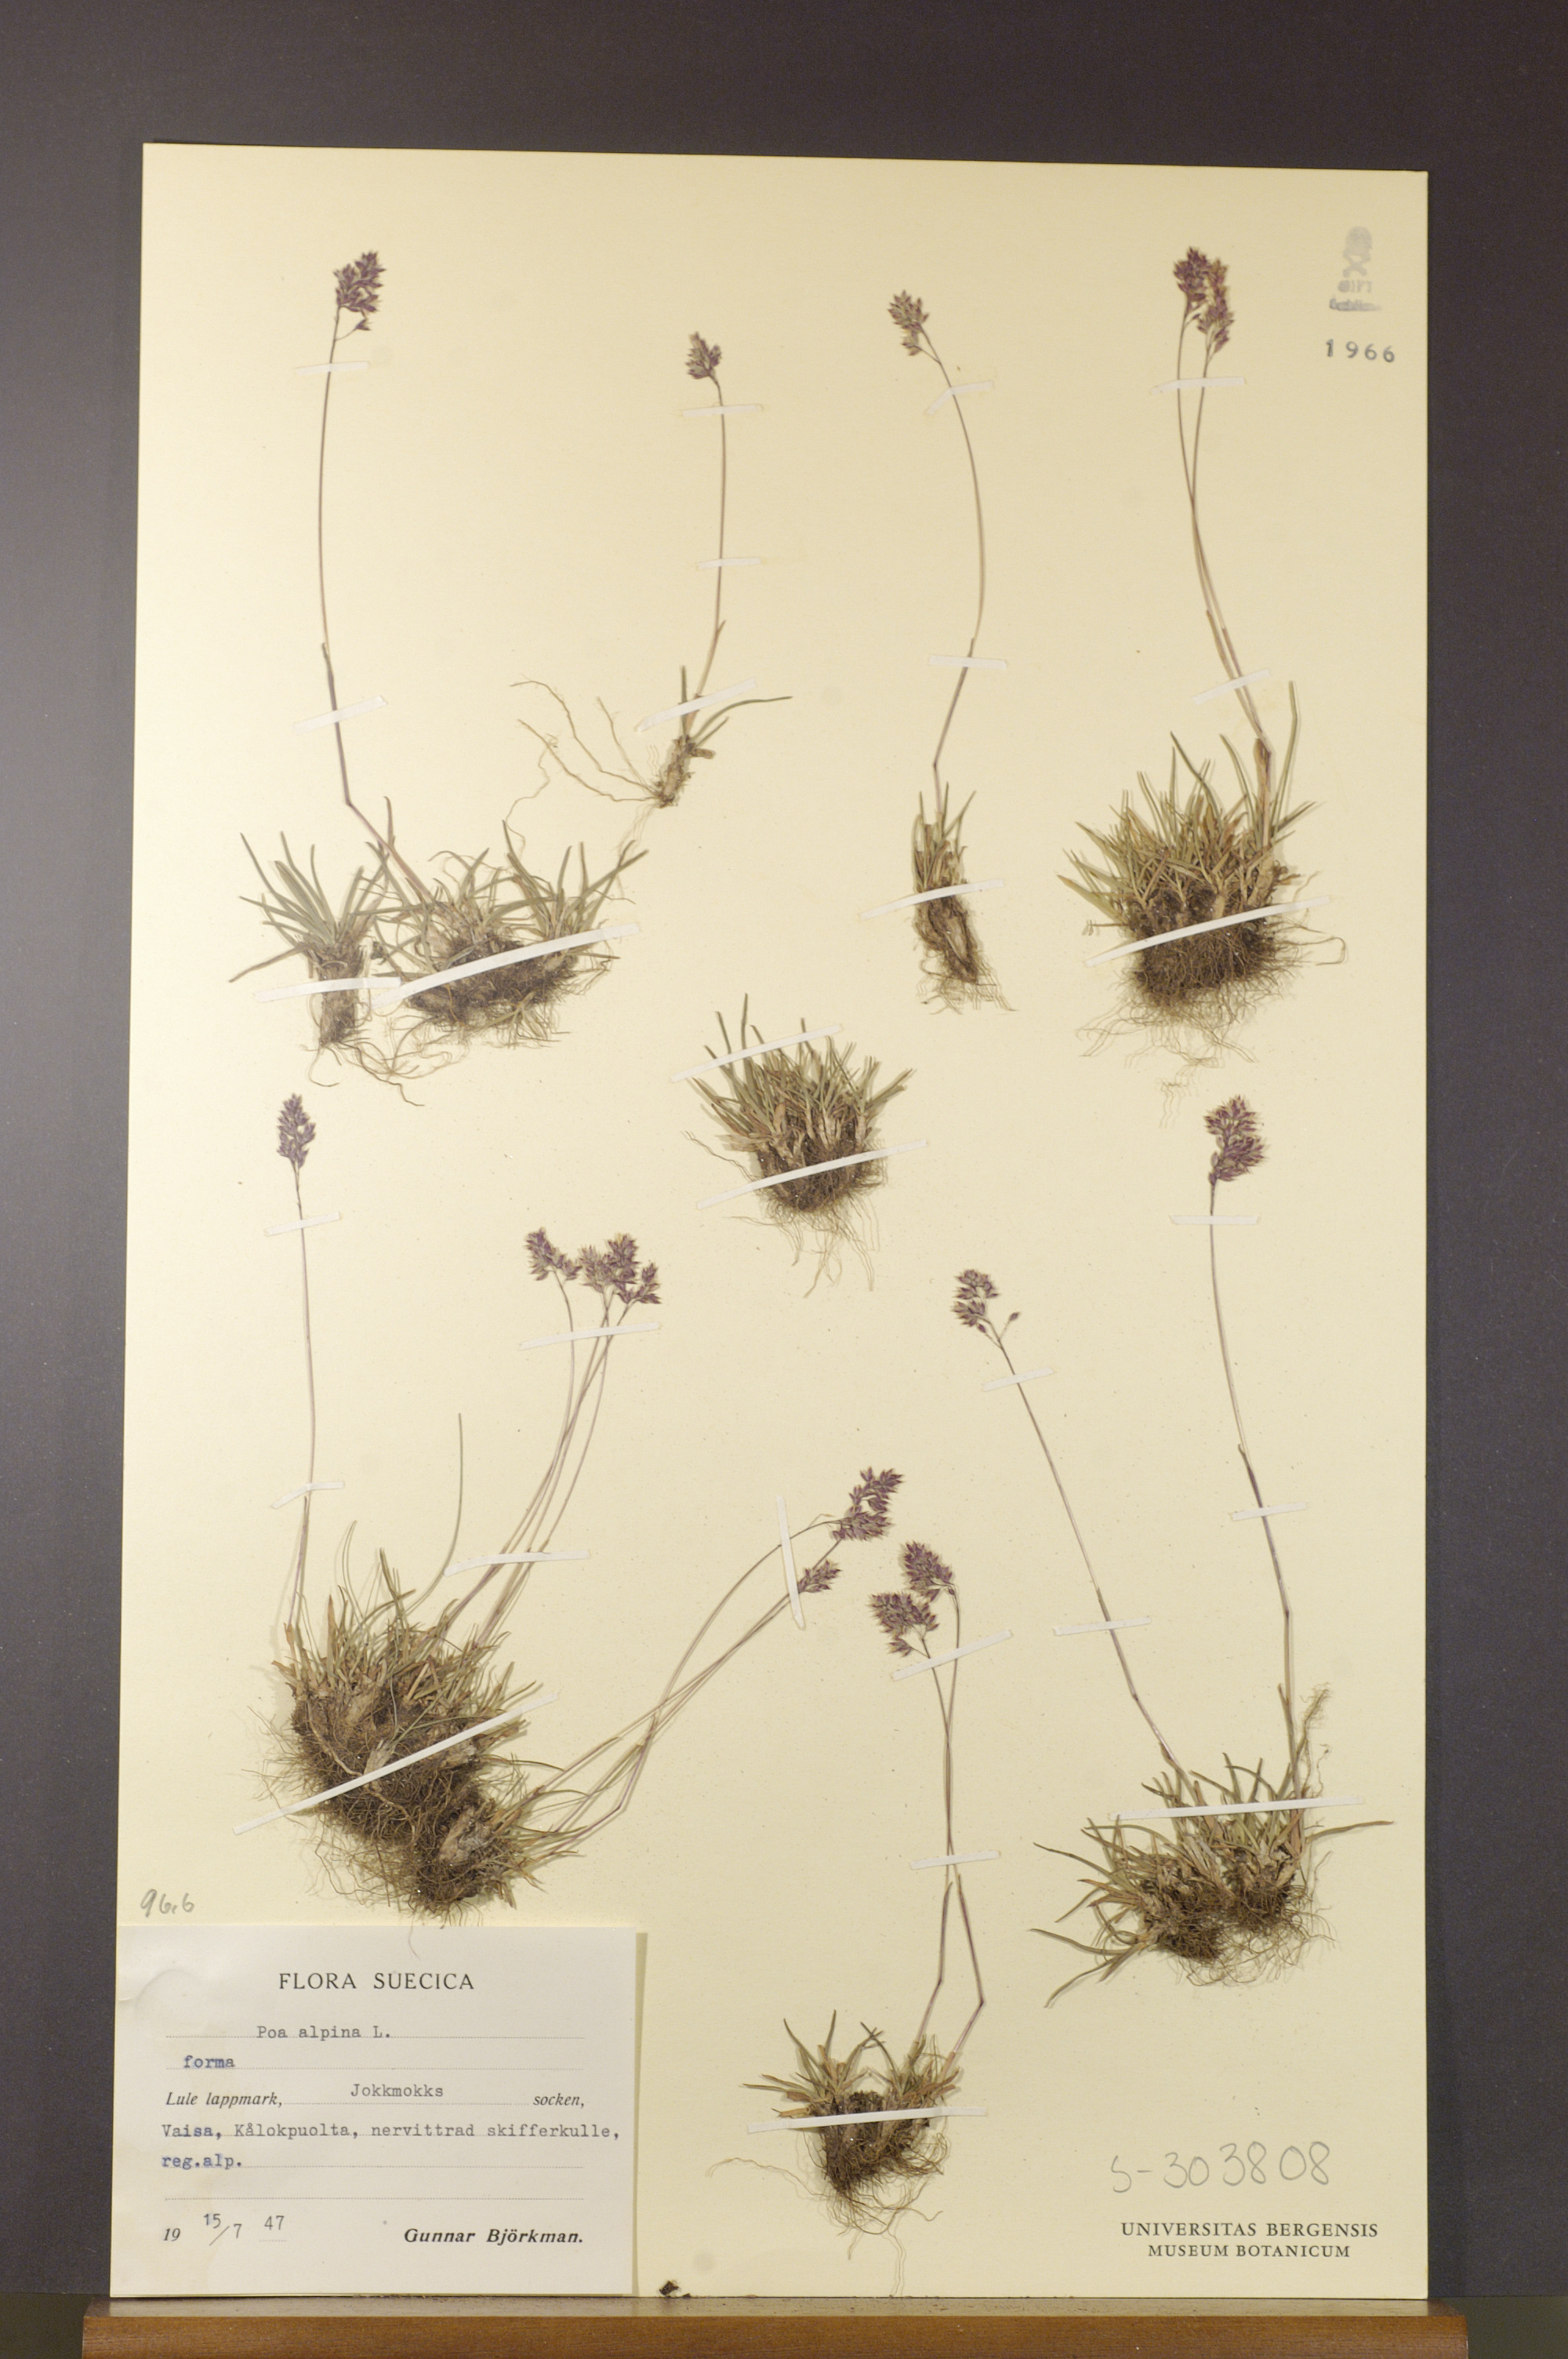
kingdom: Plantae
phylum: Tracheophyta
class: Liliopsida
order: Poales
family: Poaceae
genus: Poa
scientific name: Poa alpina
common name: Alpine bluegrass
